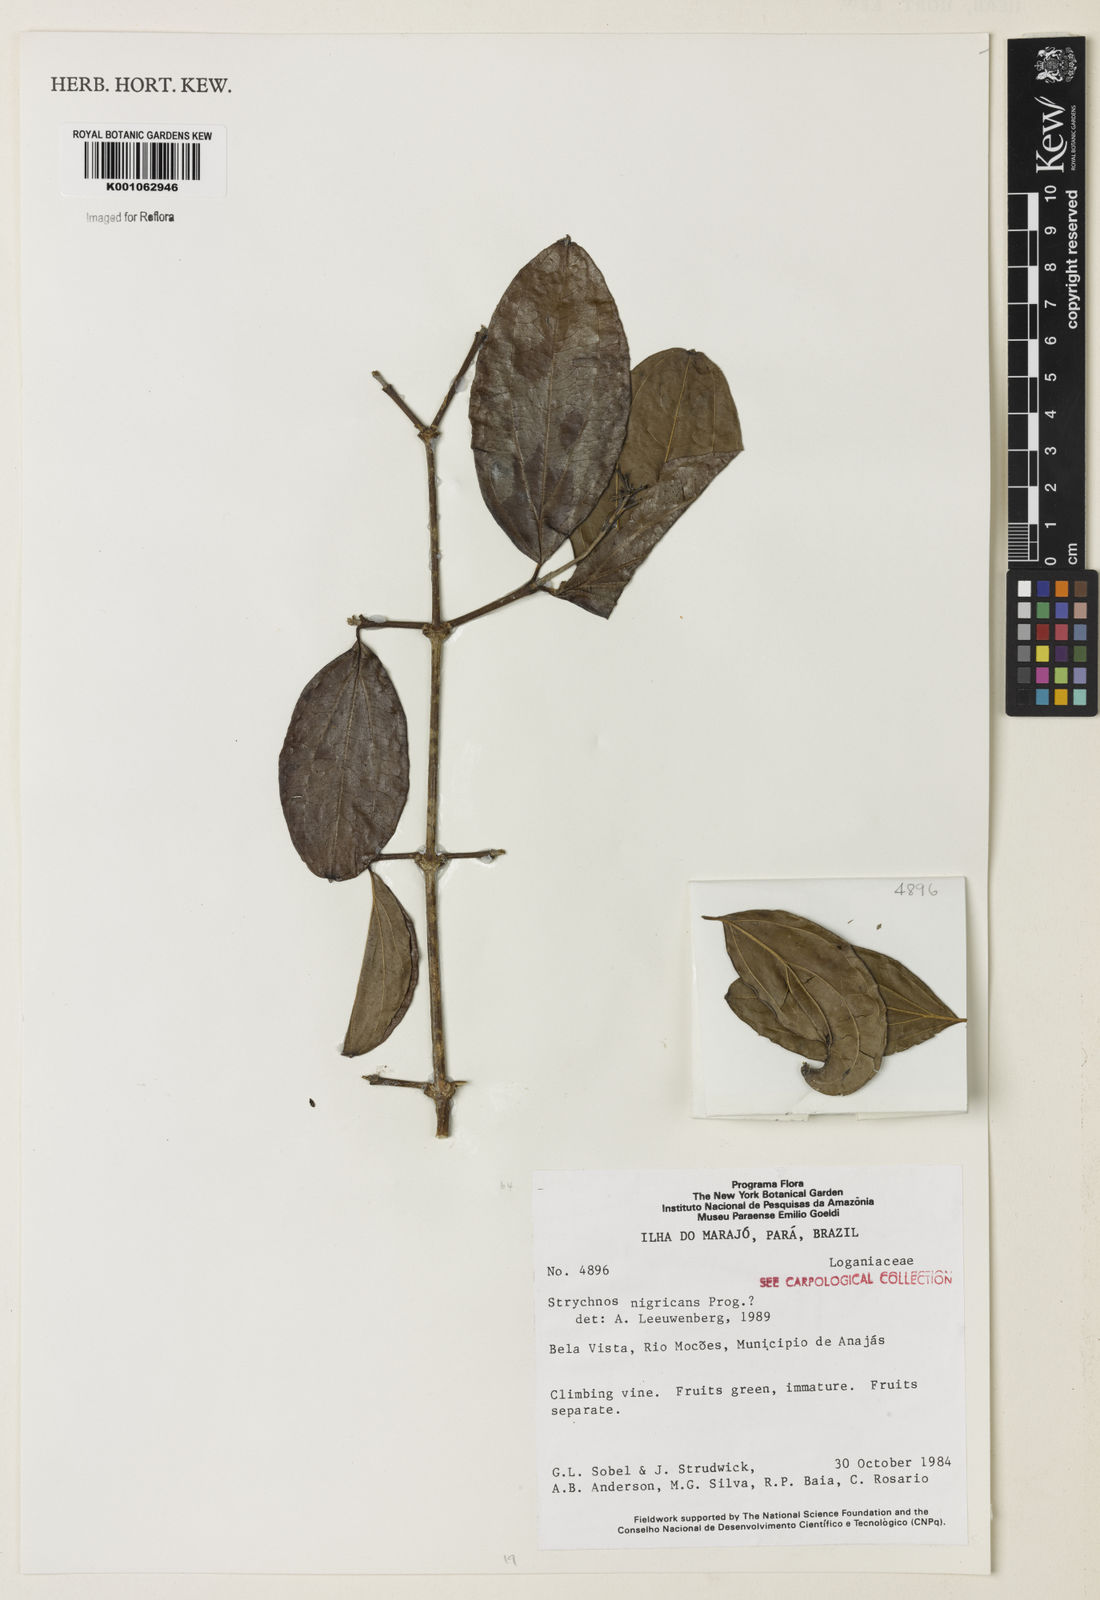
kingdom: Plantae
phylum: Tracheophyta
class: Magnoliopsida
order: Gentianales
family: Loganiaceae
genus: Strychnos
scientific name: Strychnos nigricans
